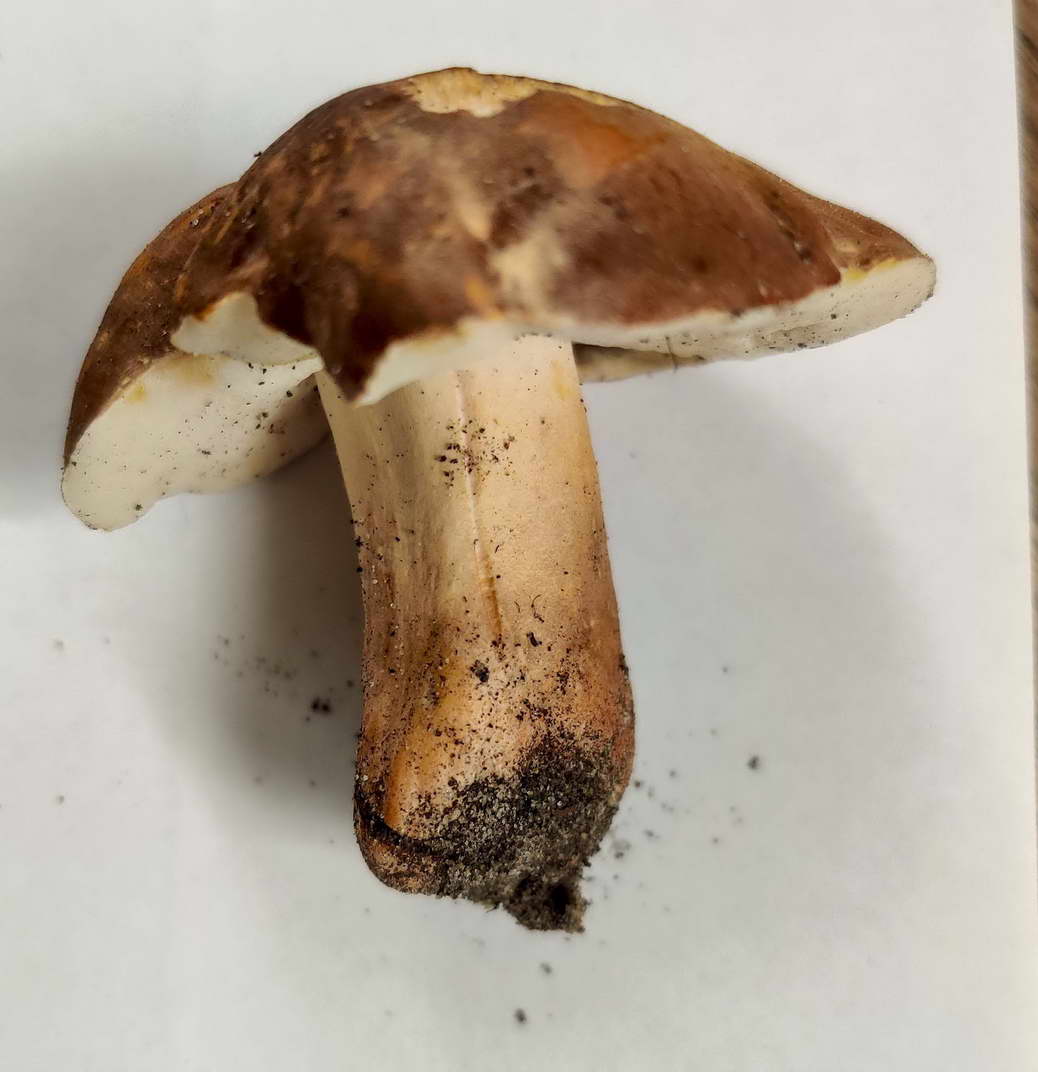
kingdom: Fungi
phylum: Basidiomycota
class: Agaricomycetes
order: Boletales
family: Gyroporaceae
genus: Gyroporus
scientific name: Gyroporus castaneus
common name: kastanie-kammerrørhat
